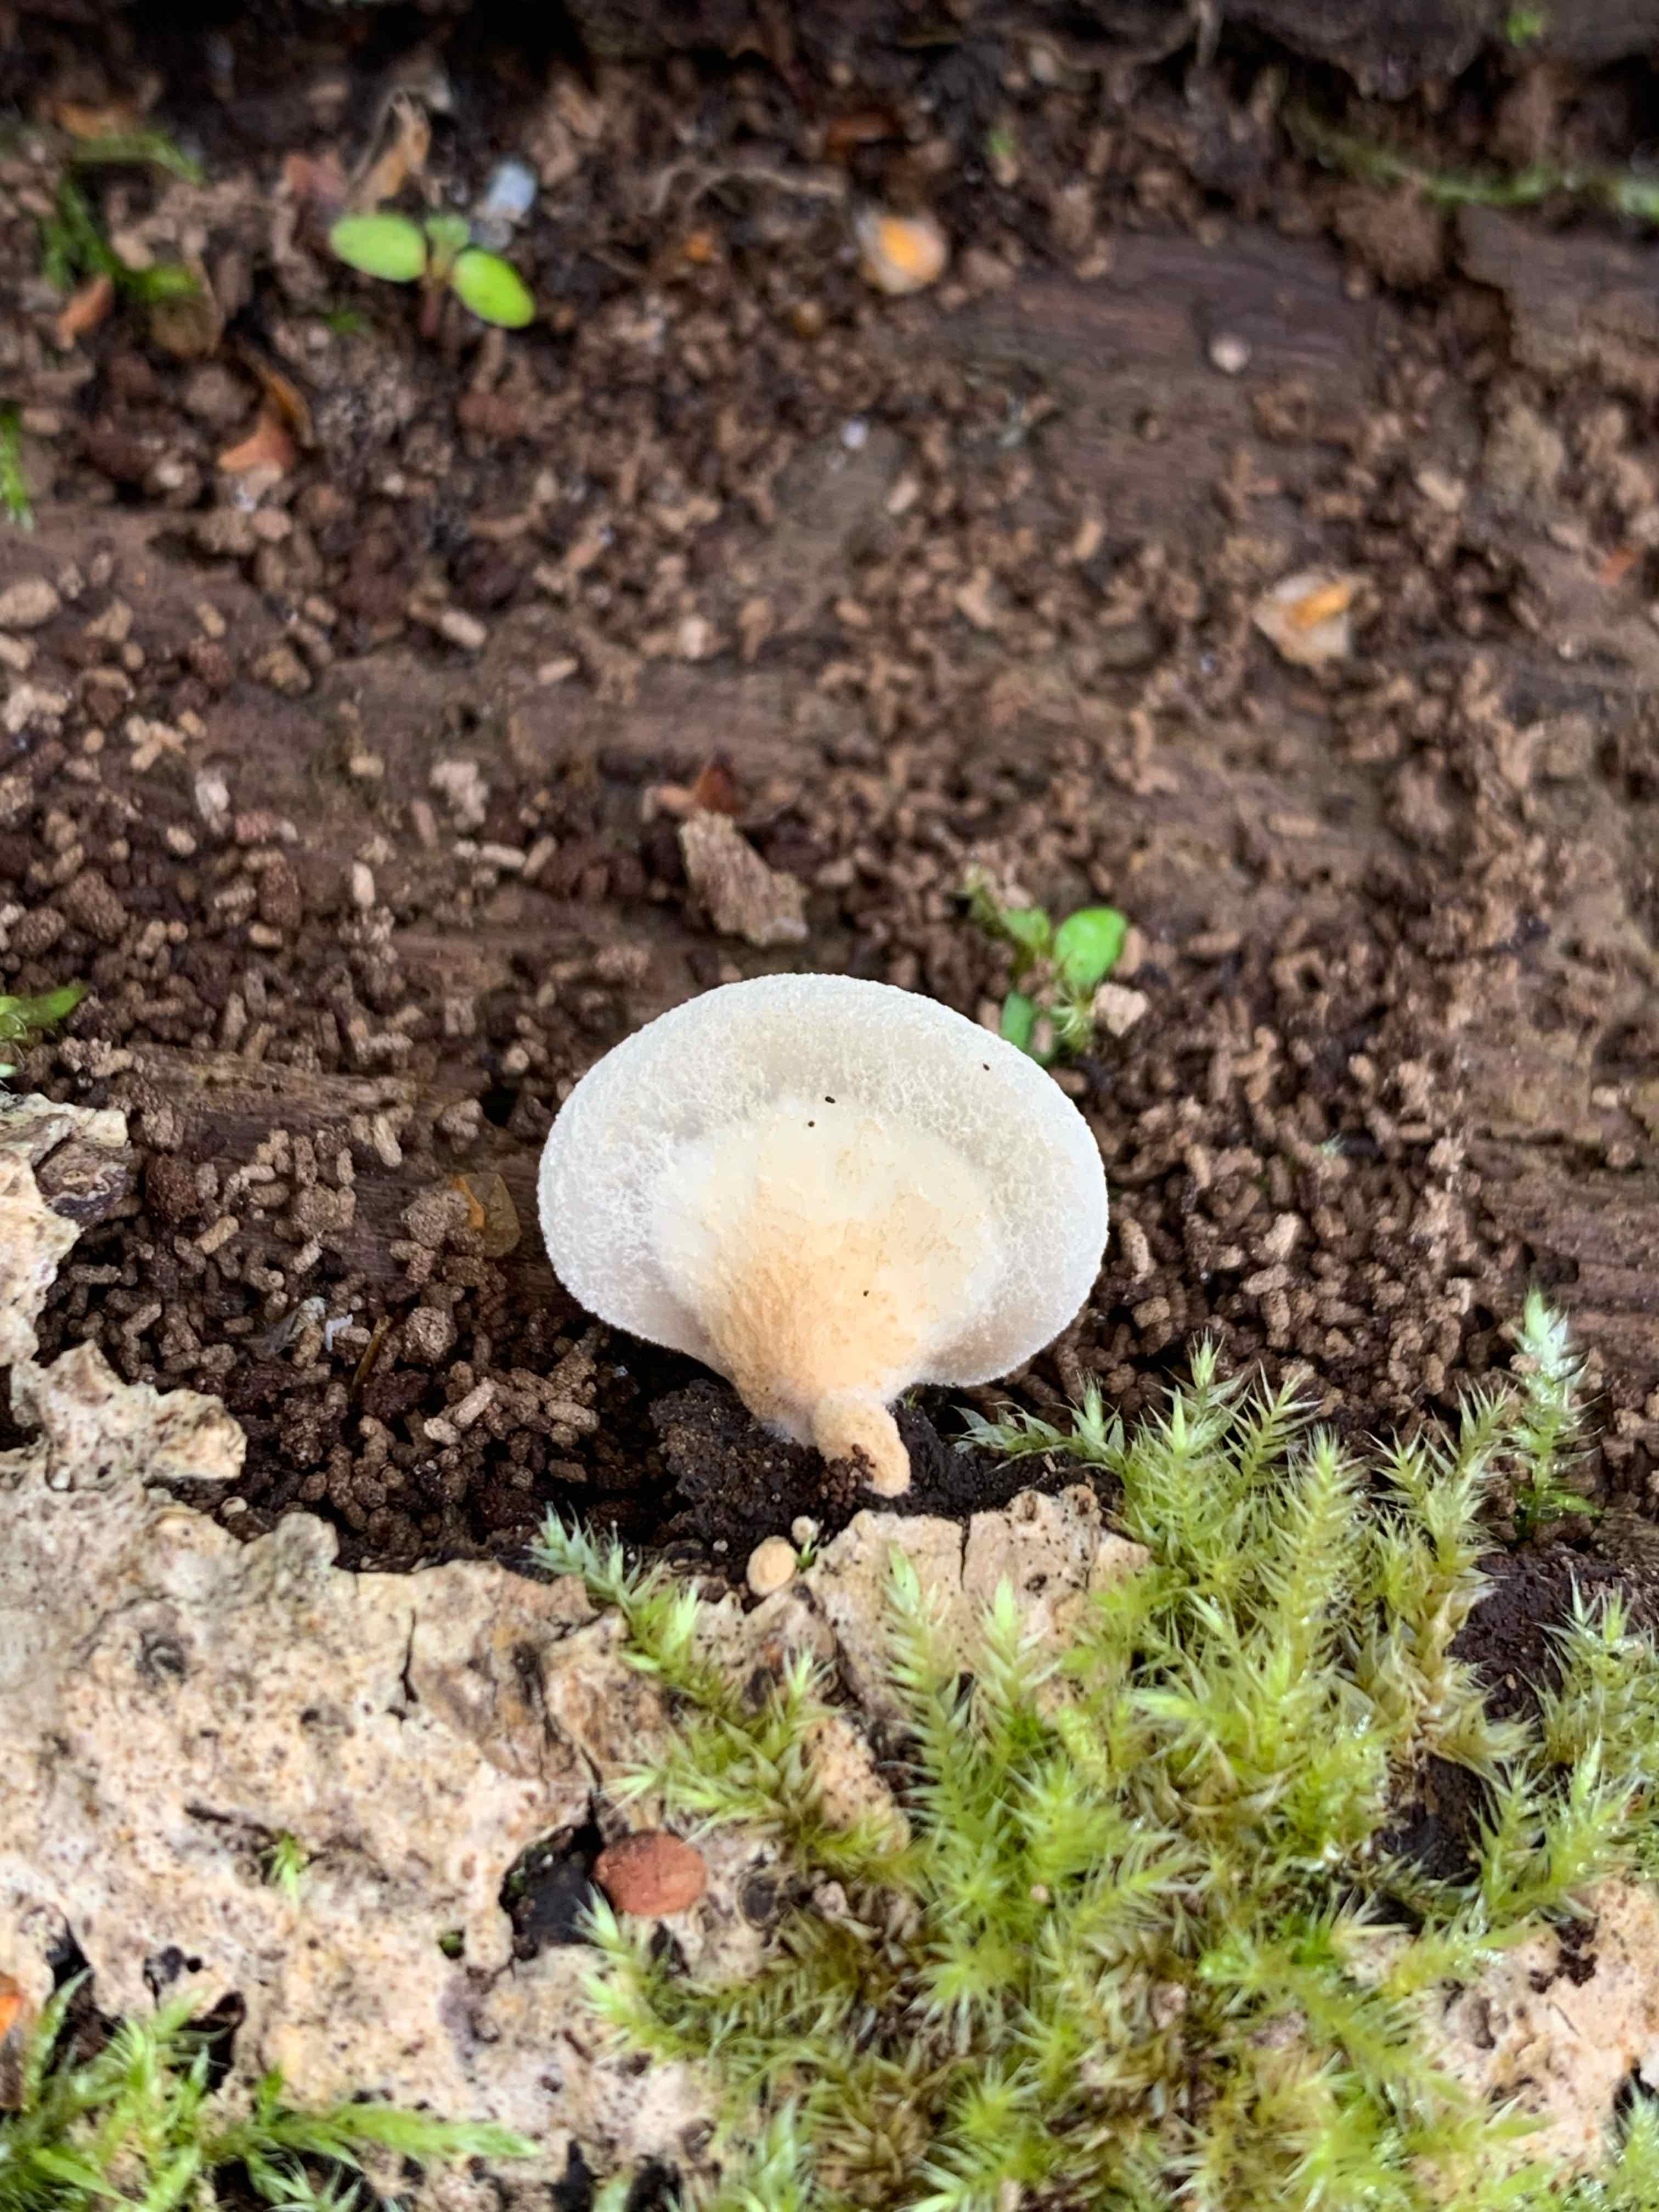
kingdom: Fungi
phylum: Basidiomycota
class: Agaricomycetes
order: Agaricales
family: Crepidotaceae
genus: Crepidotus
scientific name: Crepidotus mollis
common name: blød muslingesvamp
